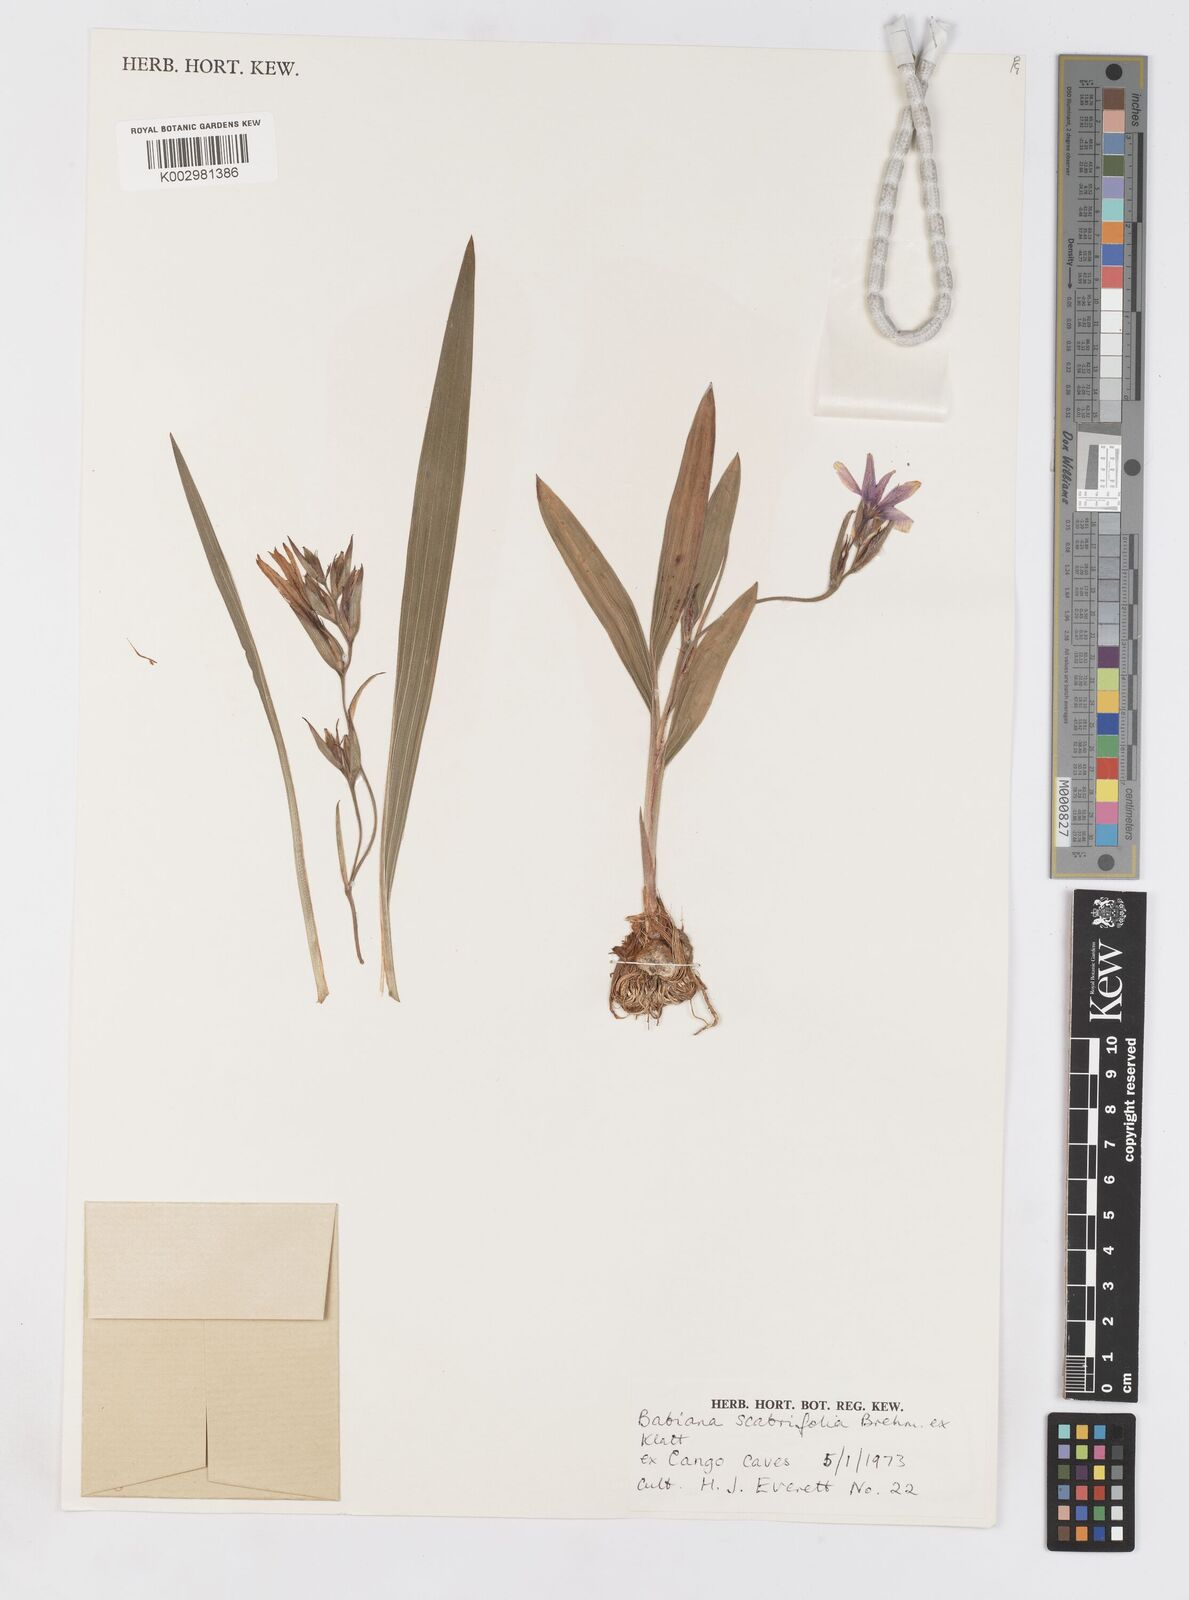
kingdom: Plantae
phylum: Tracheophyta
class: Liliopsida
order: Asparagales
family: Iridaceae
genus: Babiana
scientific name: Babiana scabrifolia
